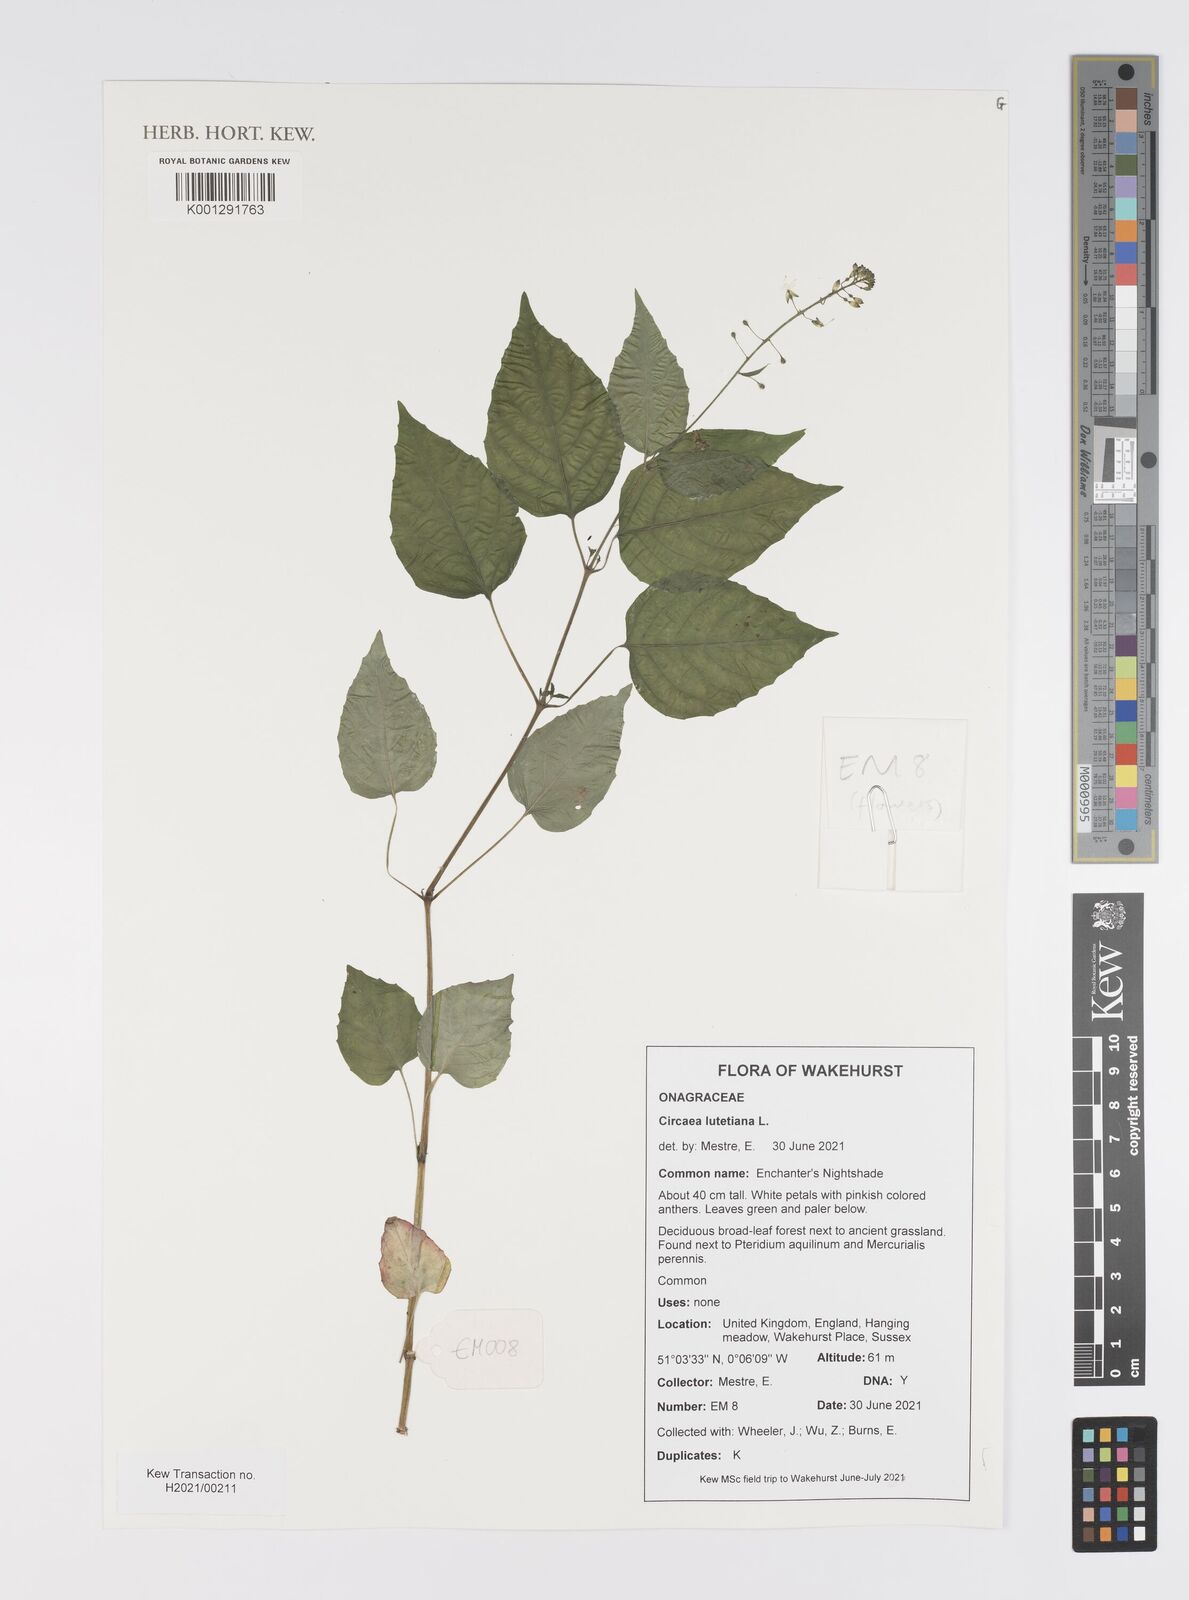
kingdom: Plantae
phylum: Tracheophyta
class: Magnoliopsida
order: Myrtales
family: Onagraceae
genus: Circaea
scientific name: Circaea lutetiana
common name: Enchanter's-nightshade
